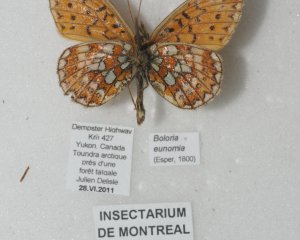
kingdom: Animalia
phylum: Arthropoda
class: Insecta
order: Lepidoptera
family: Nymphalidae
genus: Boloria
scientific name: Boloria eunomia
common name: Bog Fritillary
